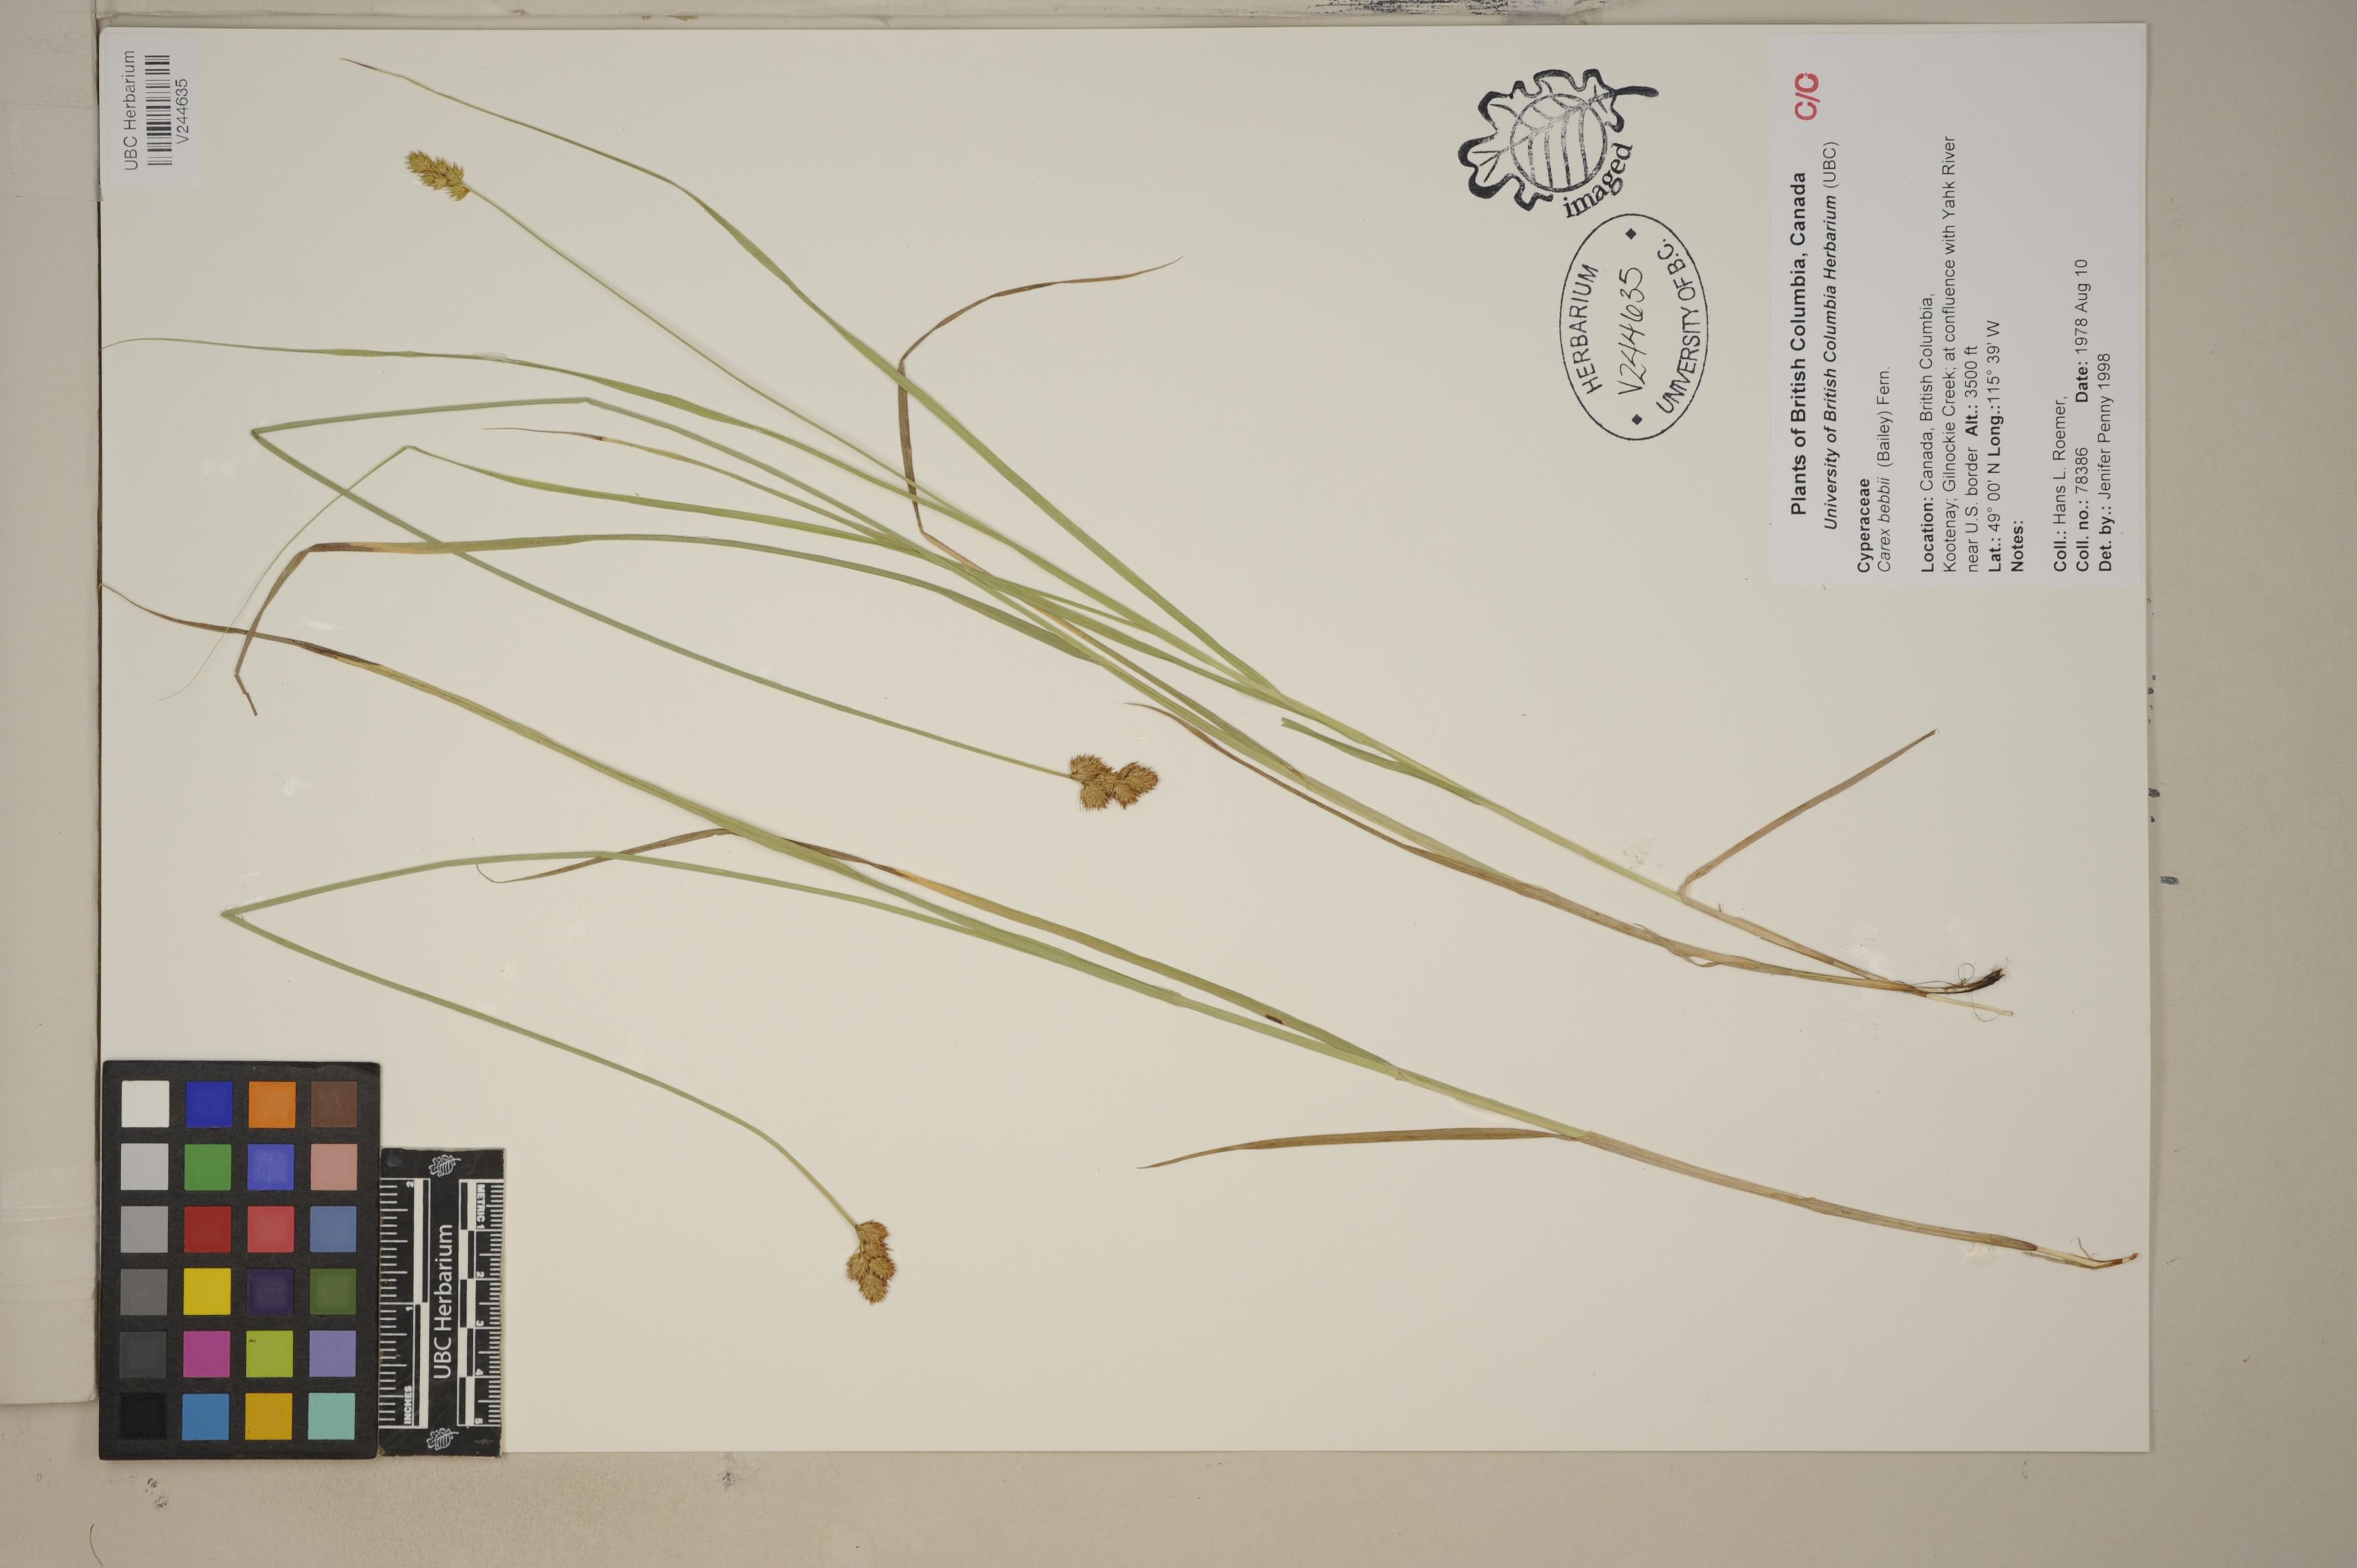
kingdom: Plantae
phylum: Tracheophyta
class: Liliopsida
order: Poales
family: Cyperaceae
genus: Carex
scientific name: Carex bebbii
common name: Bebb's sedge
